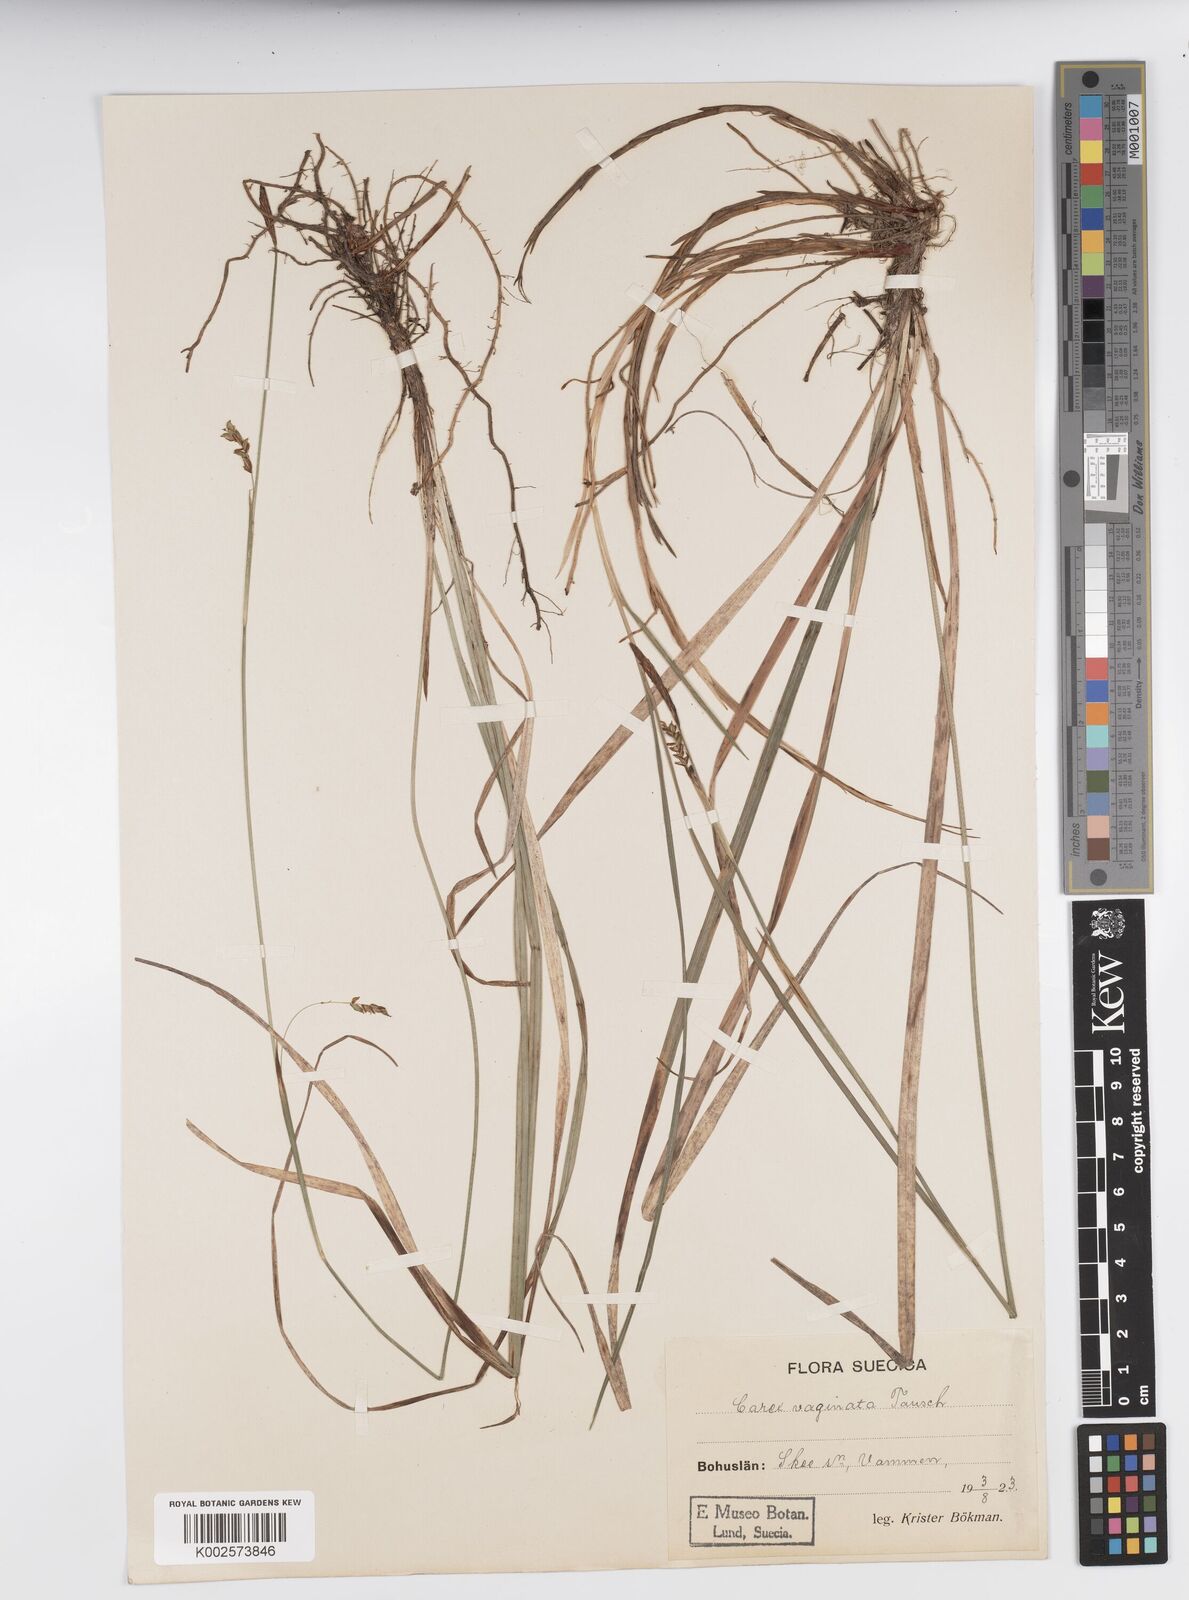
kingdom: Plantae
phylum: Tracheophyta
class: Liliopsida
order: Poales
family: Cyperaceae
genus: Carex
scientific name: Carex vaginata
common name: Sheathed sedge
